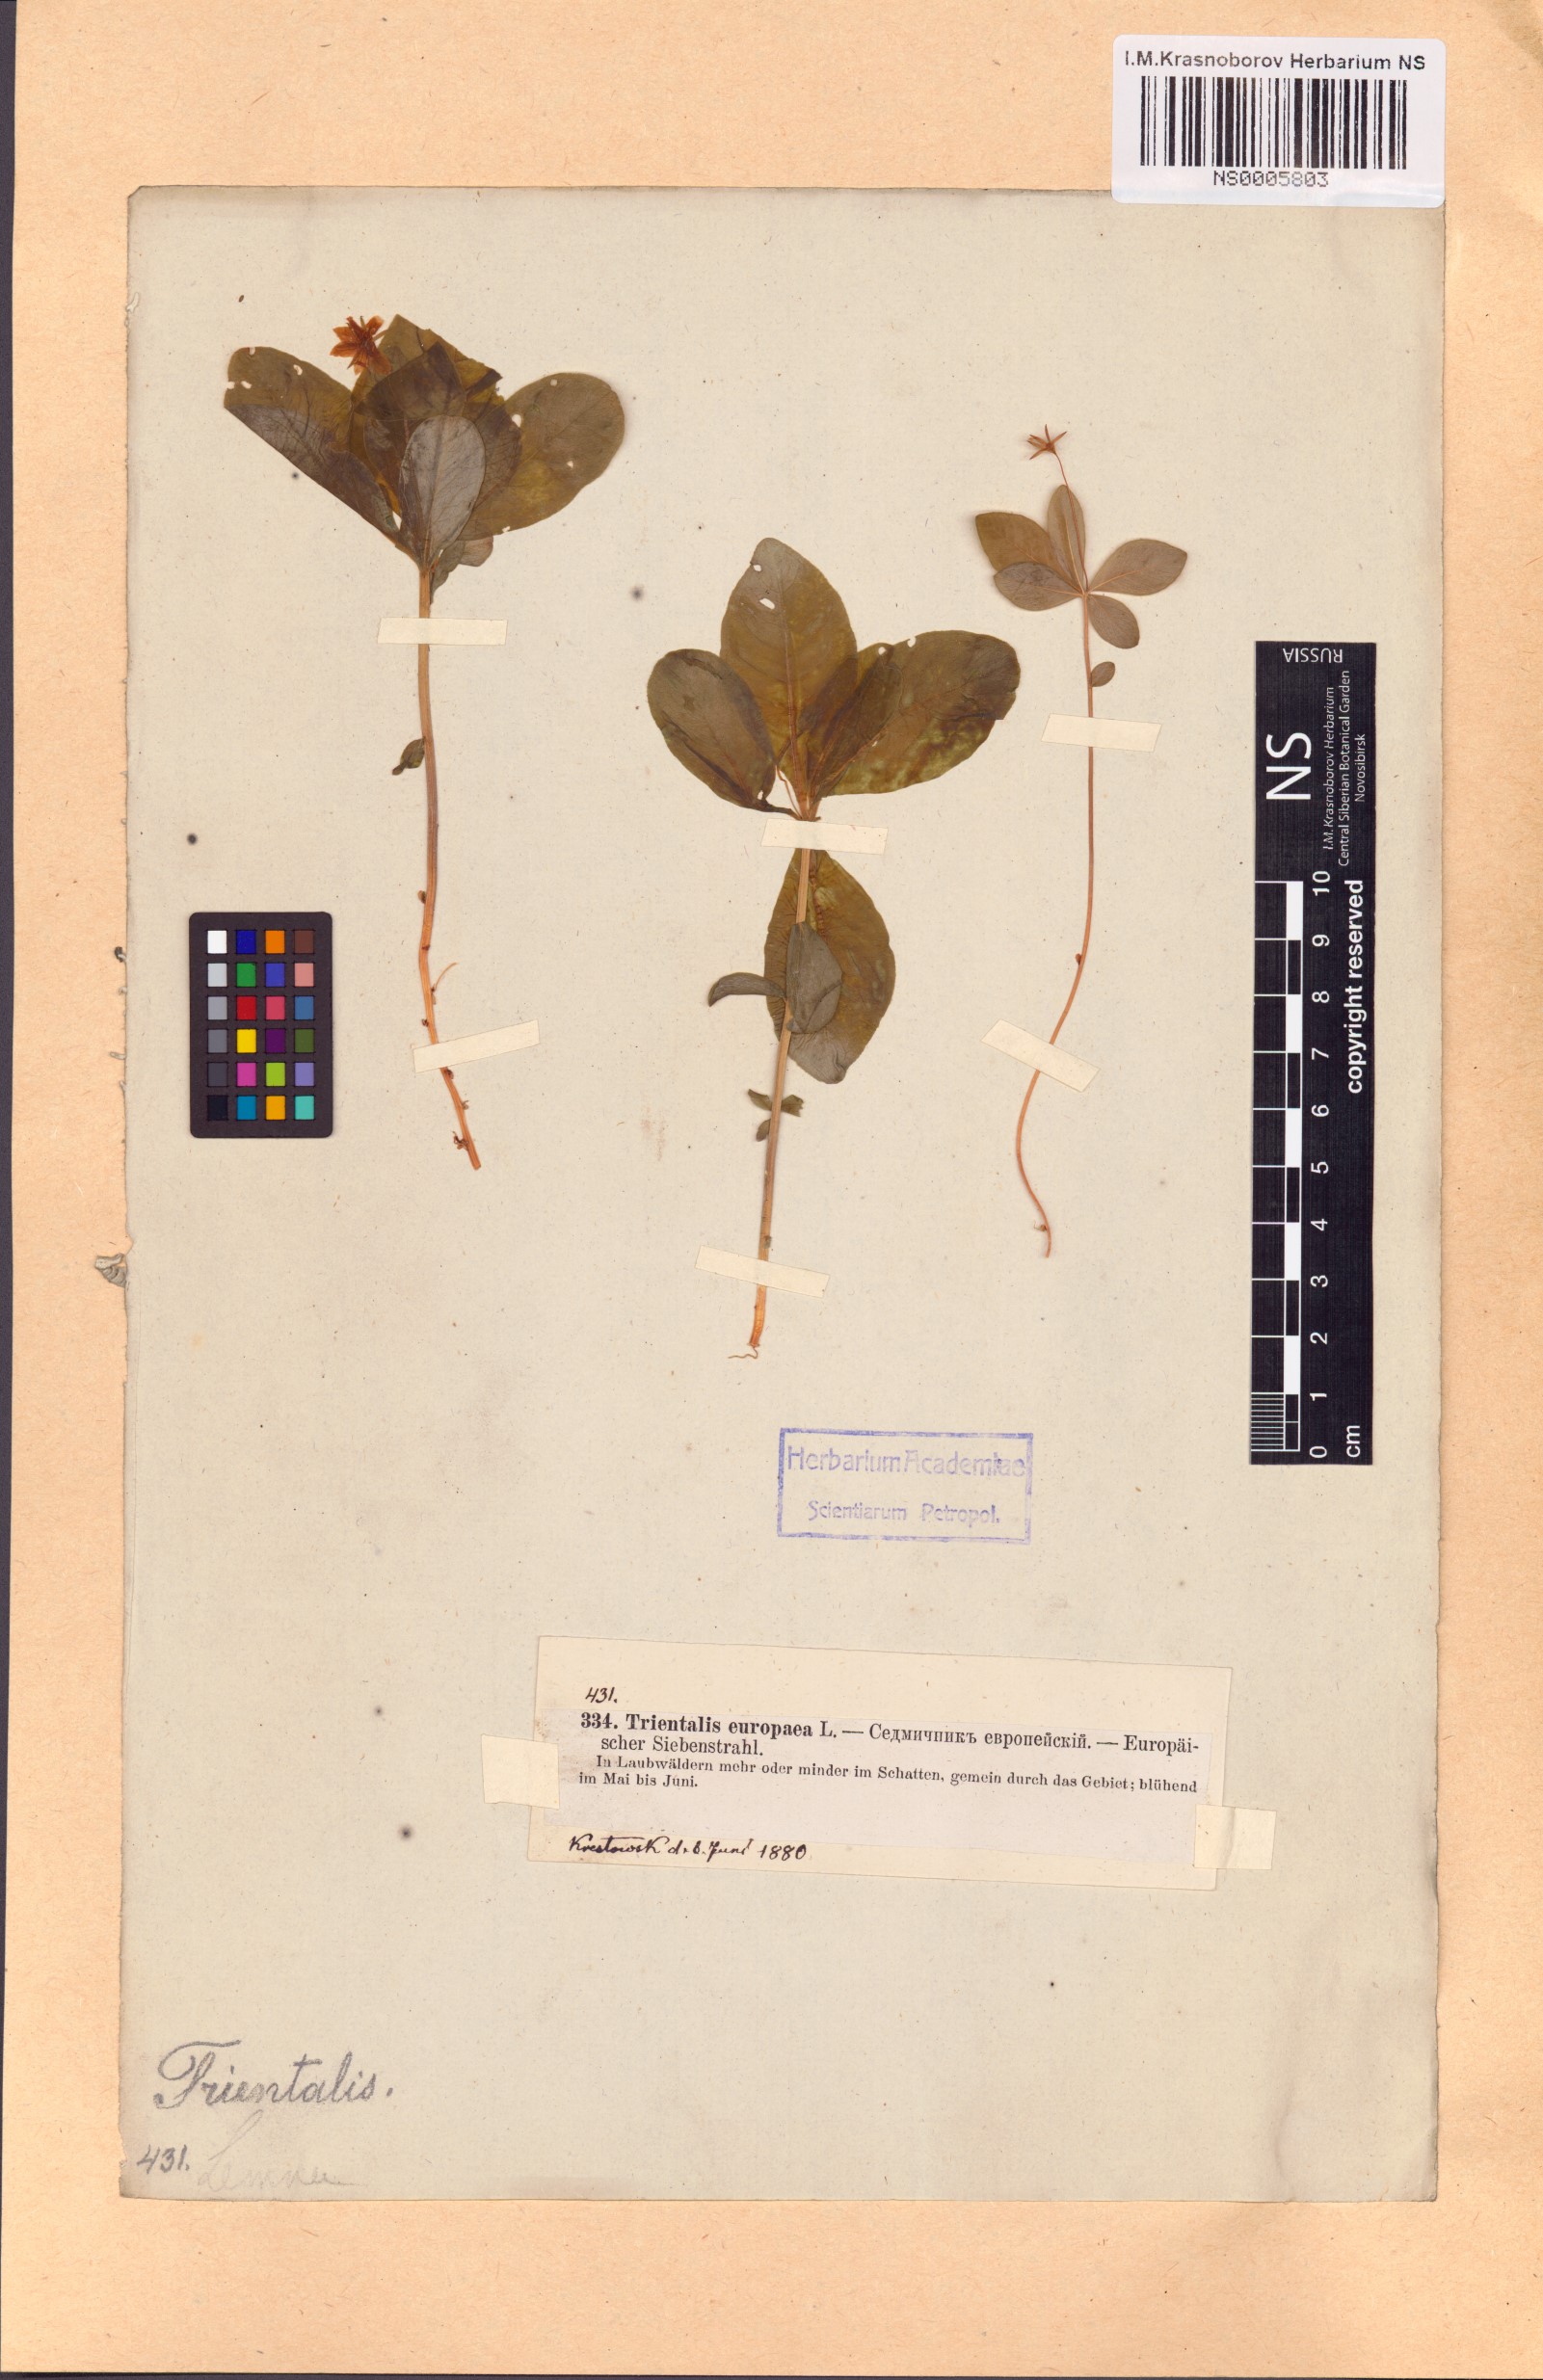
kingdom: Plantae
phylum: Tracheophyta
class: Magnoliopsida
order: Ericales
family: Primulaceae
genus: Lysimachia
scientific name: Lysimachia europaea
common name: Arctic starflower
